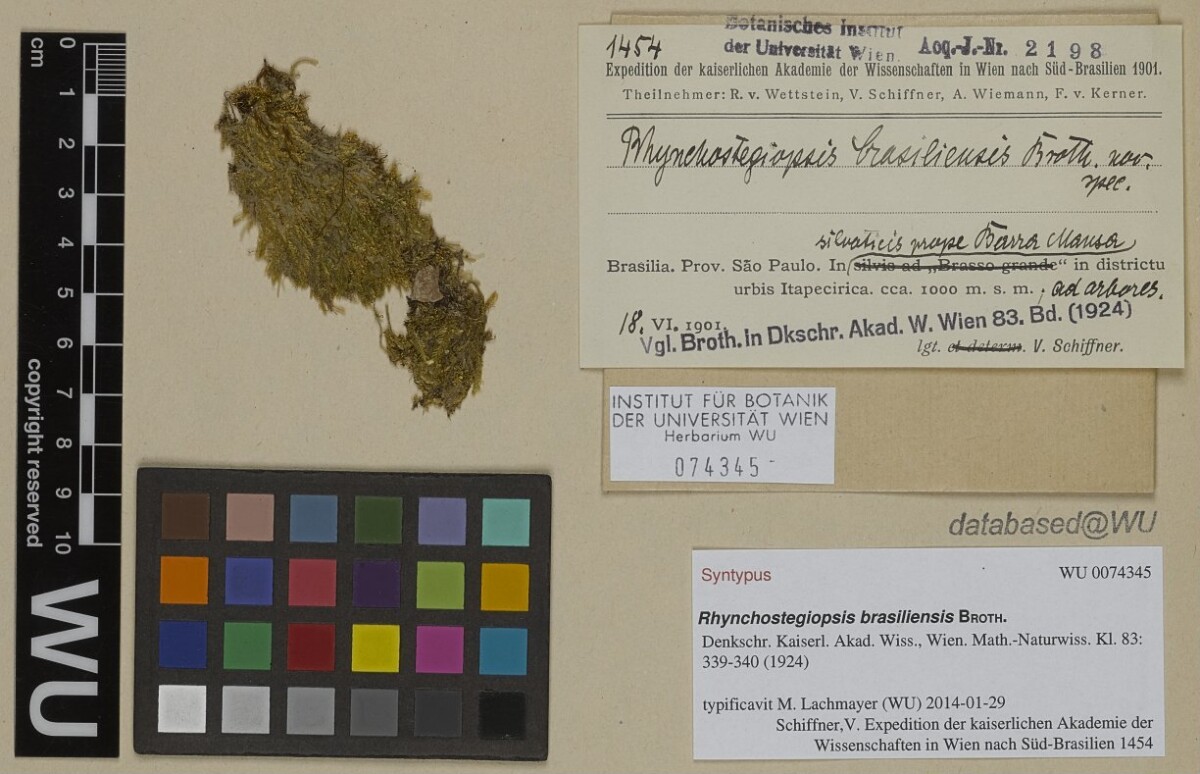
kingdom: Plantae
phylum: Bryophyta
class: Bryopsida
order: Hookeriales
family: Leucomiaceae
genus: Rhynchostegiopsis
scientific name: Rhynchostegiopsis brasiliensis
